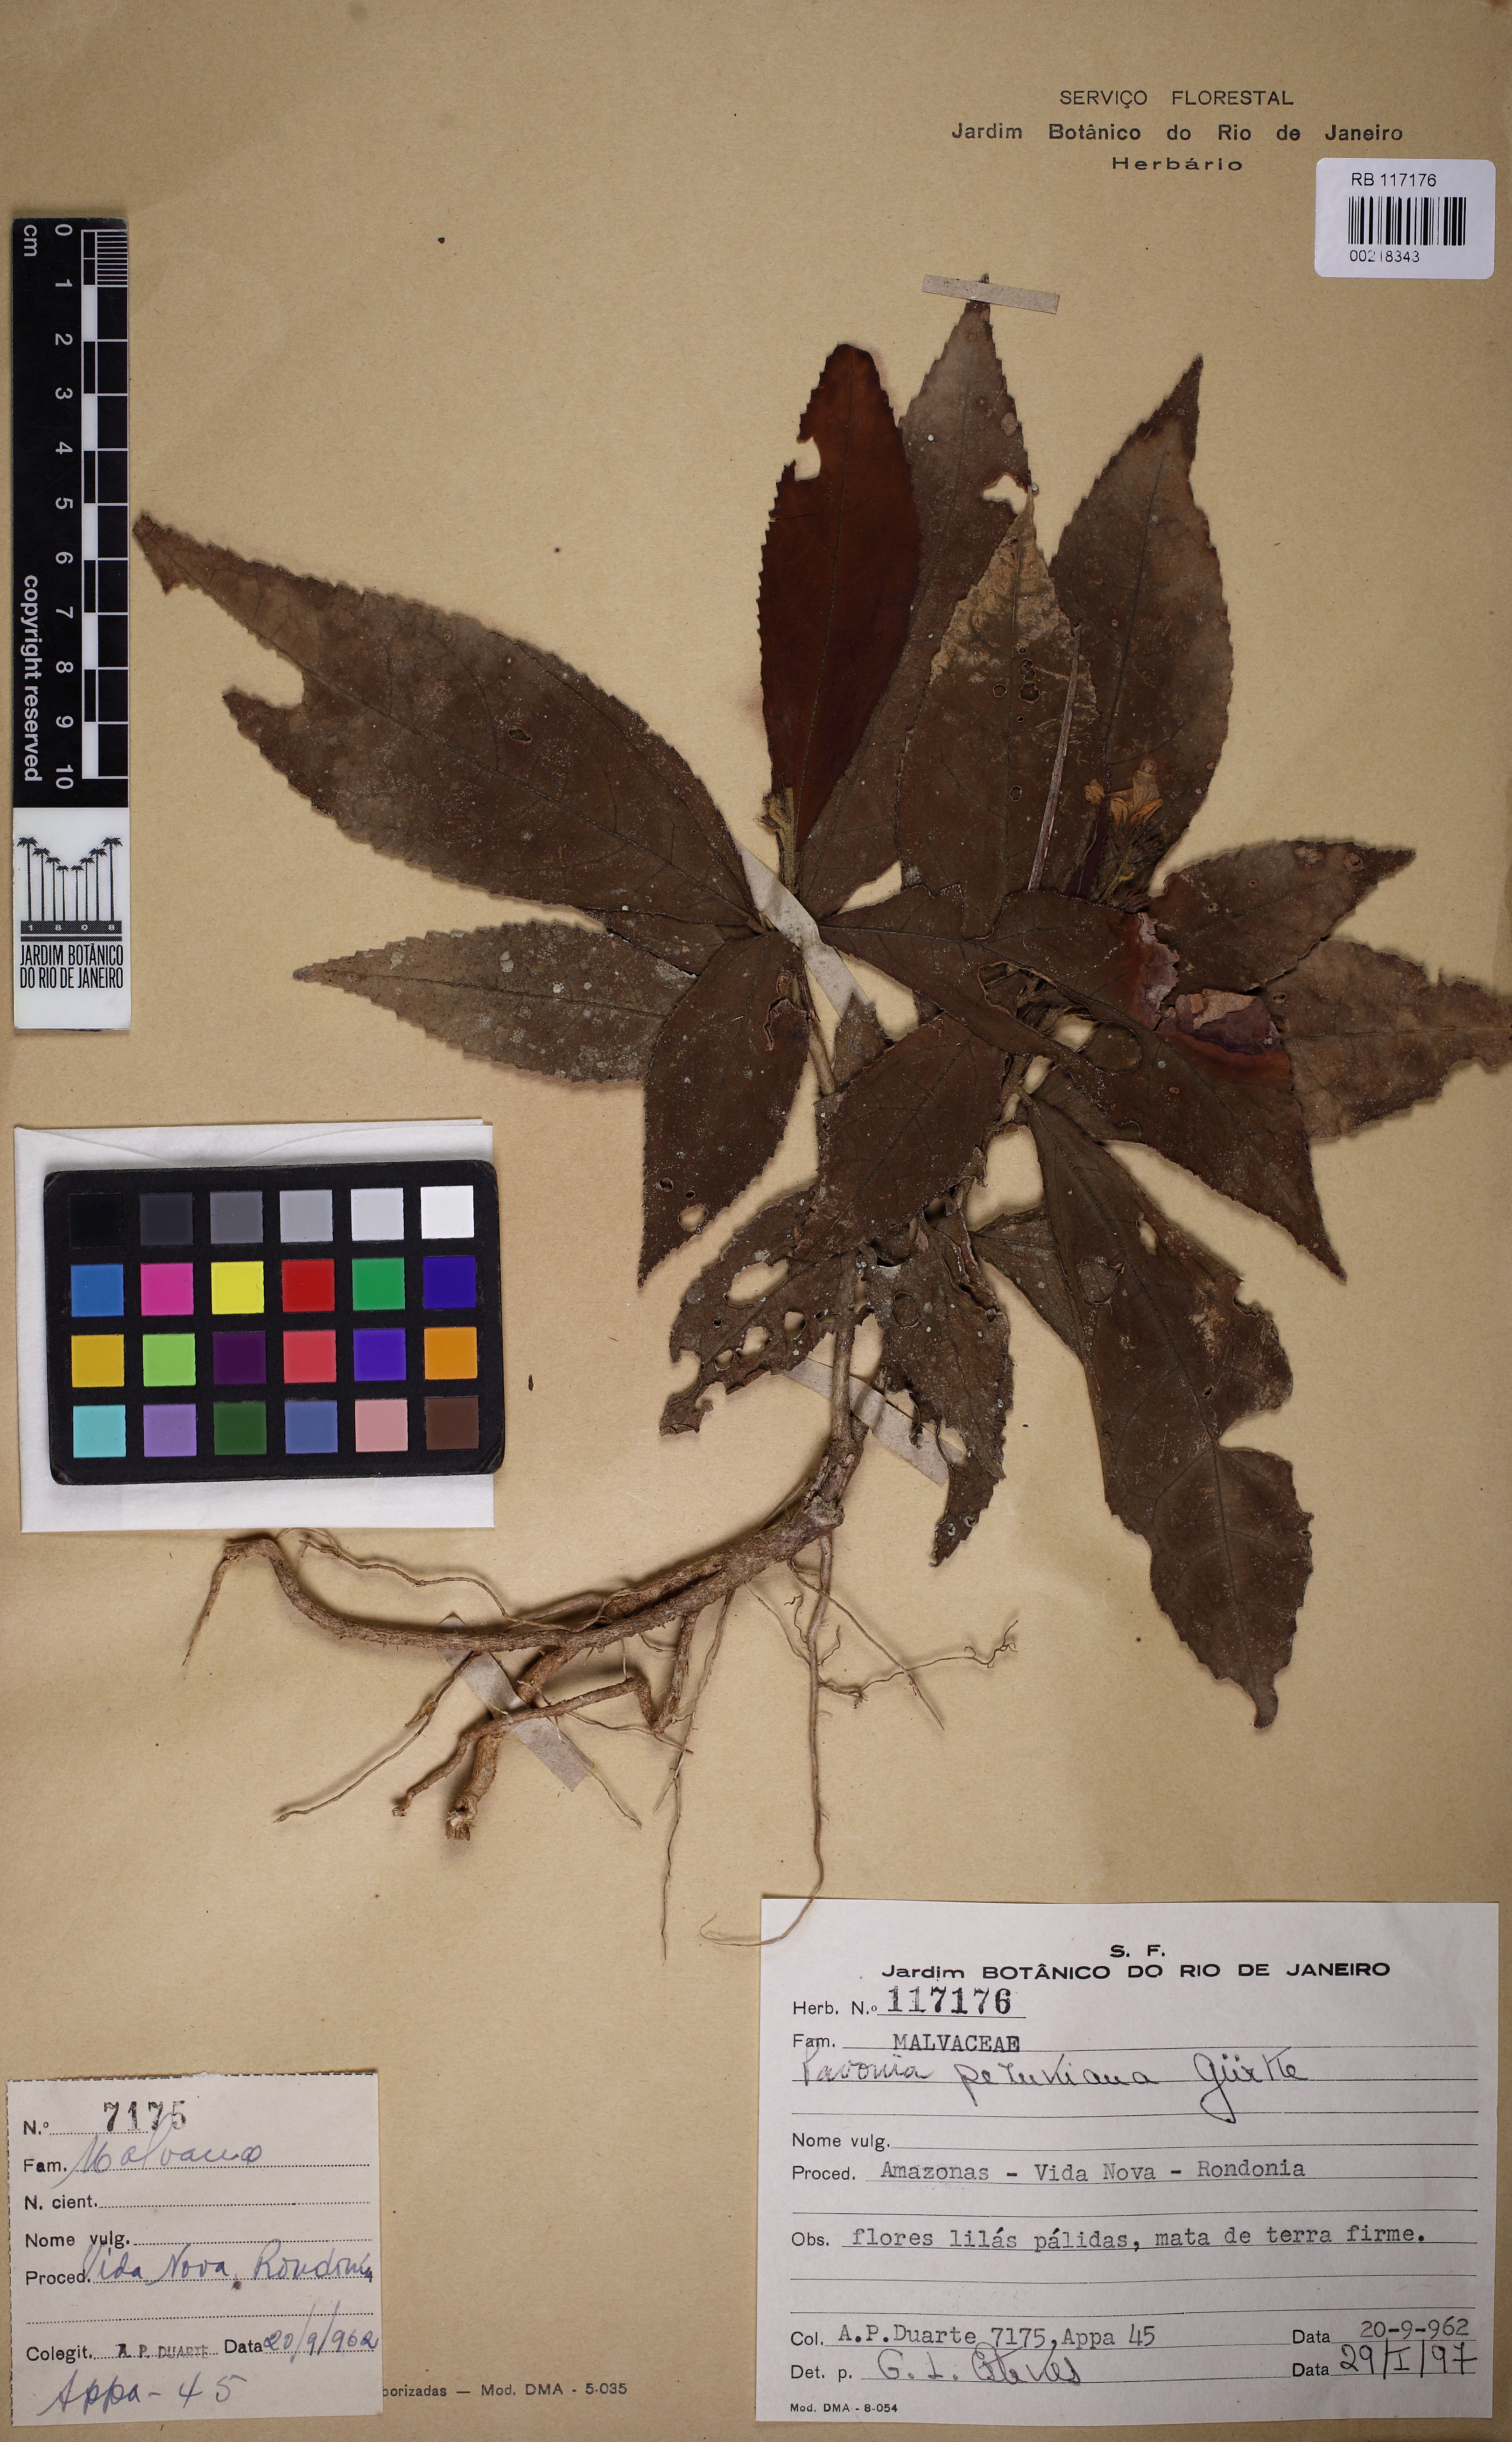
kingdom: Plantae
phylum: Tracheophyta
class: Magnoliopsida
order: Malvales
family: Malvaceae
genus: Pavonia
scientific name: Pavonia peruviana
